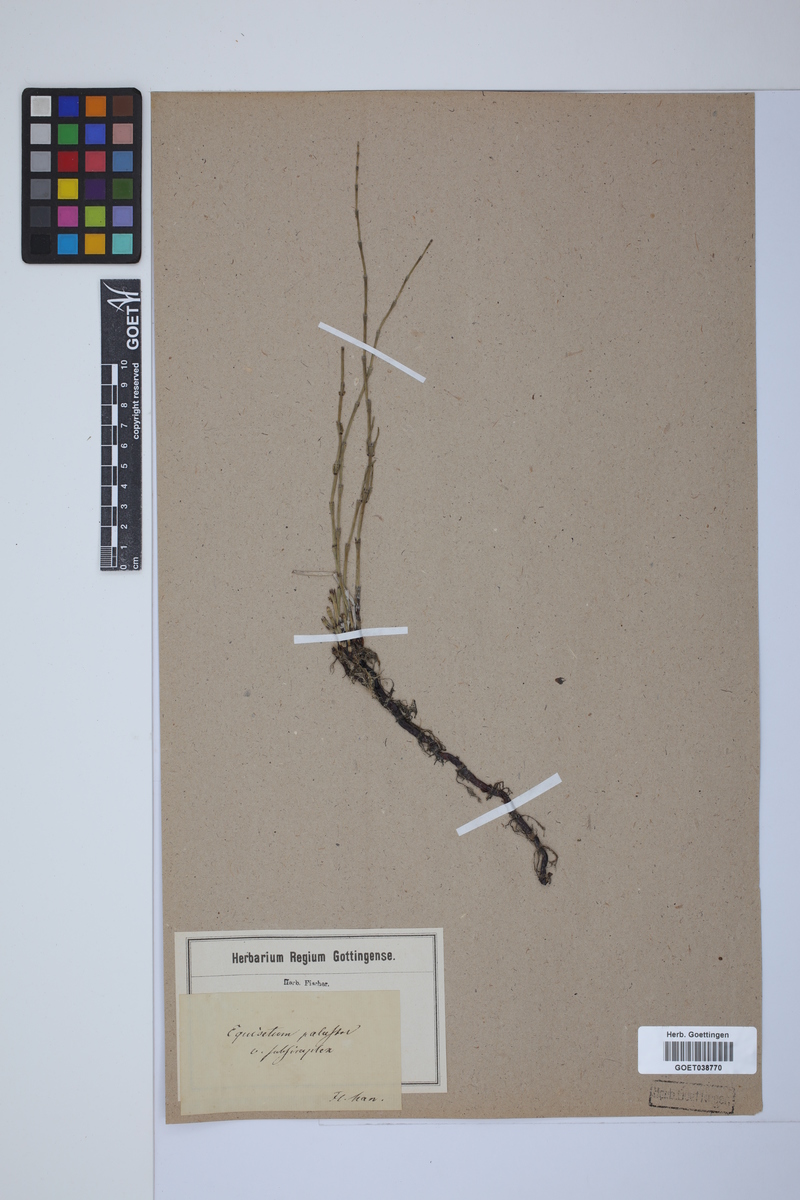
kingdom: Plantae
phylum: Tracheophyta
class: Polypodiopsida
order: Equisetales
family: Equisetaceae
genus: Equisetum
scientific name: Equisetum palustre
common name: Marsh horsetail
